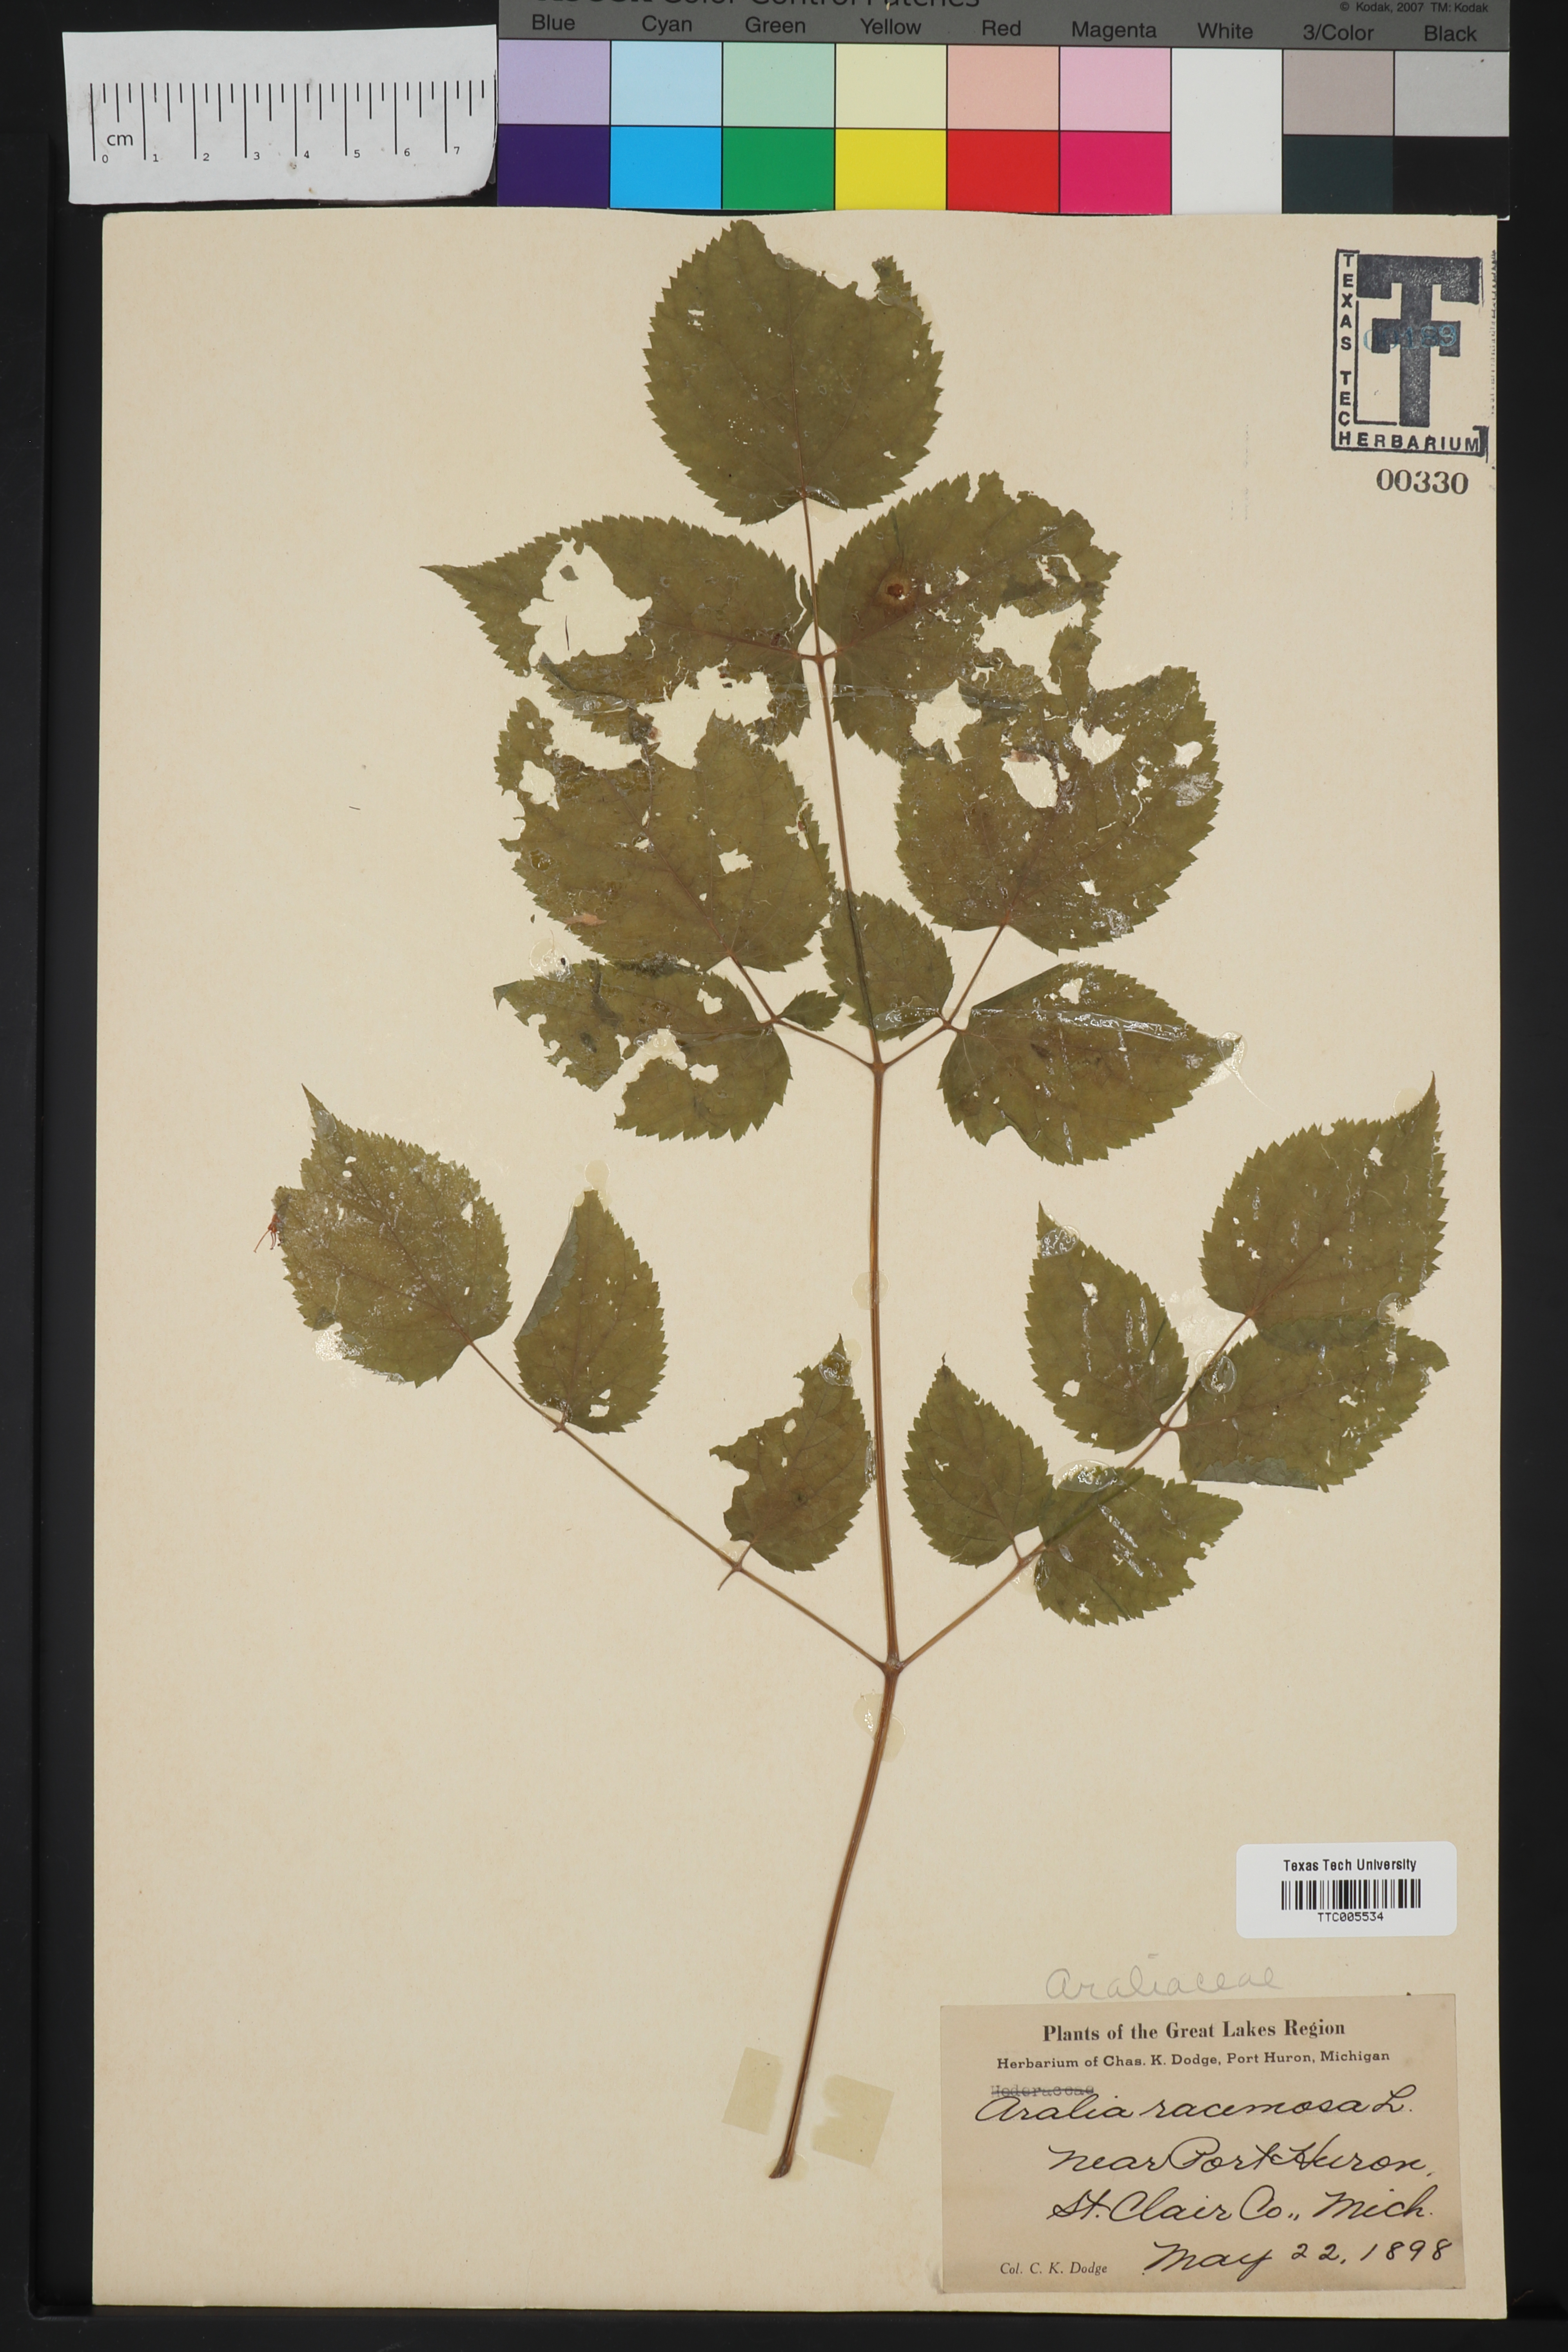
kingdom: Plantae
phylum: Tracheophyta
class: Magnoliopsida
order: Apiales
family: Araliaceae
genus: Aralia
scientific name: Aralia racemosa
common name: American-spikenard
